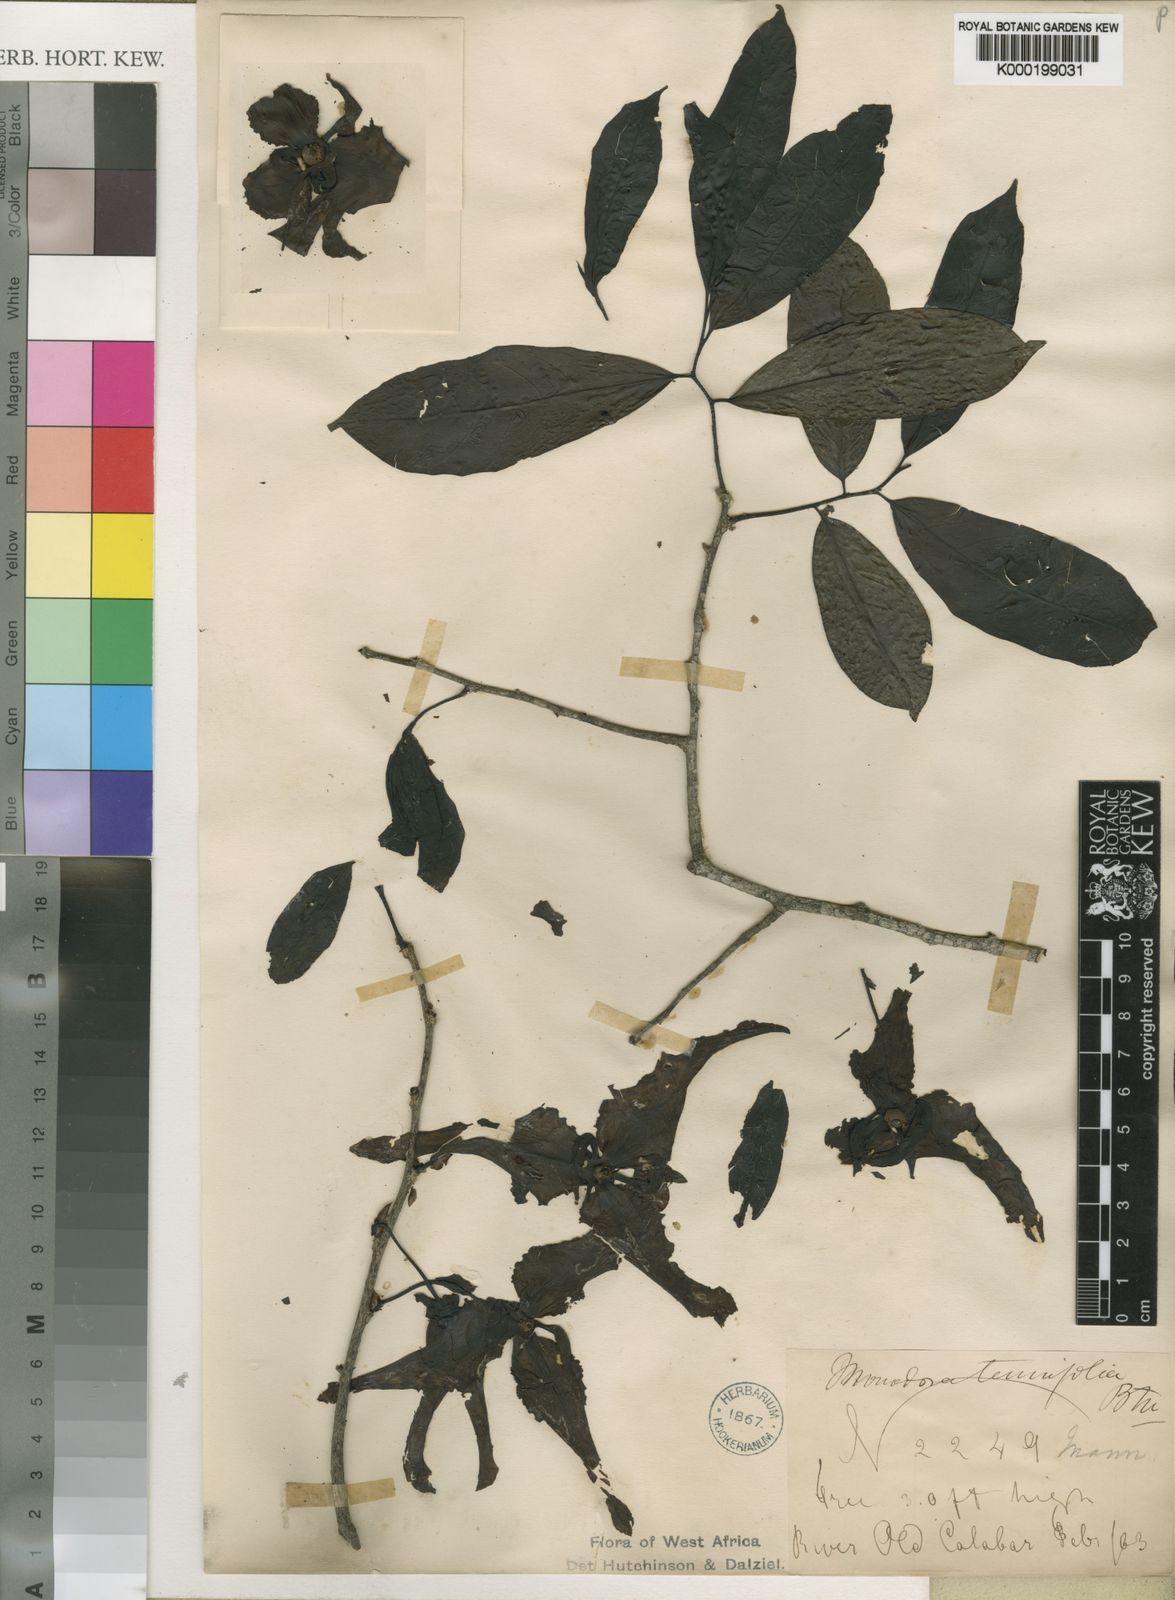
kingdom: Plantae
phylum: Tracheophyta
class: Magnoliopsida
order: Magnoliales
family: Annonaceae
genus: Monodora
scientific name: Monodora tenuifolia
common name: Orchidtree
